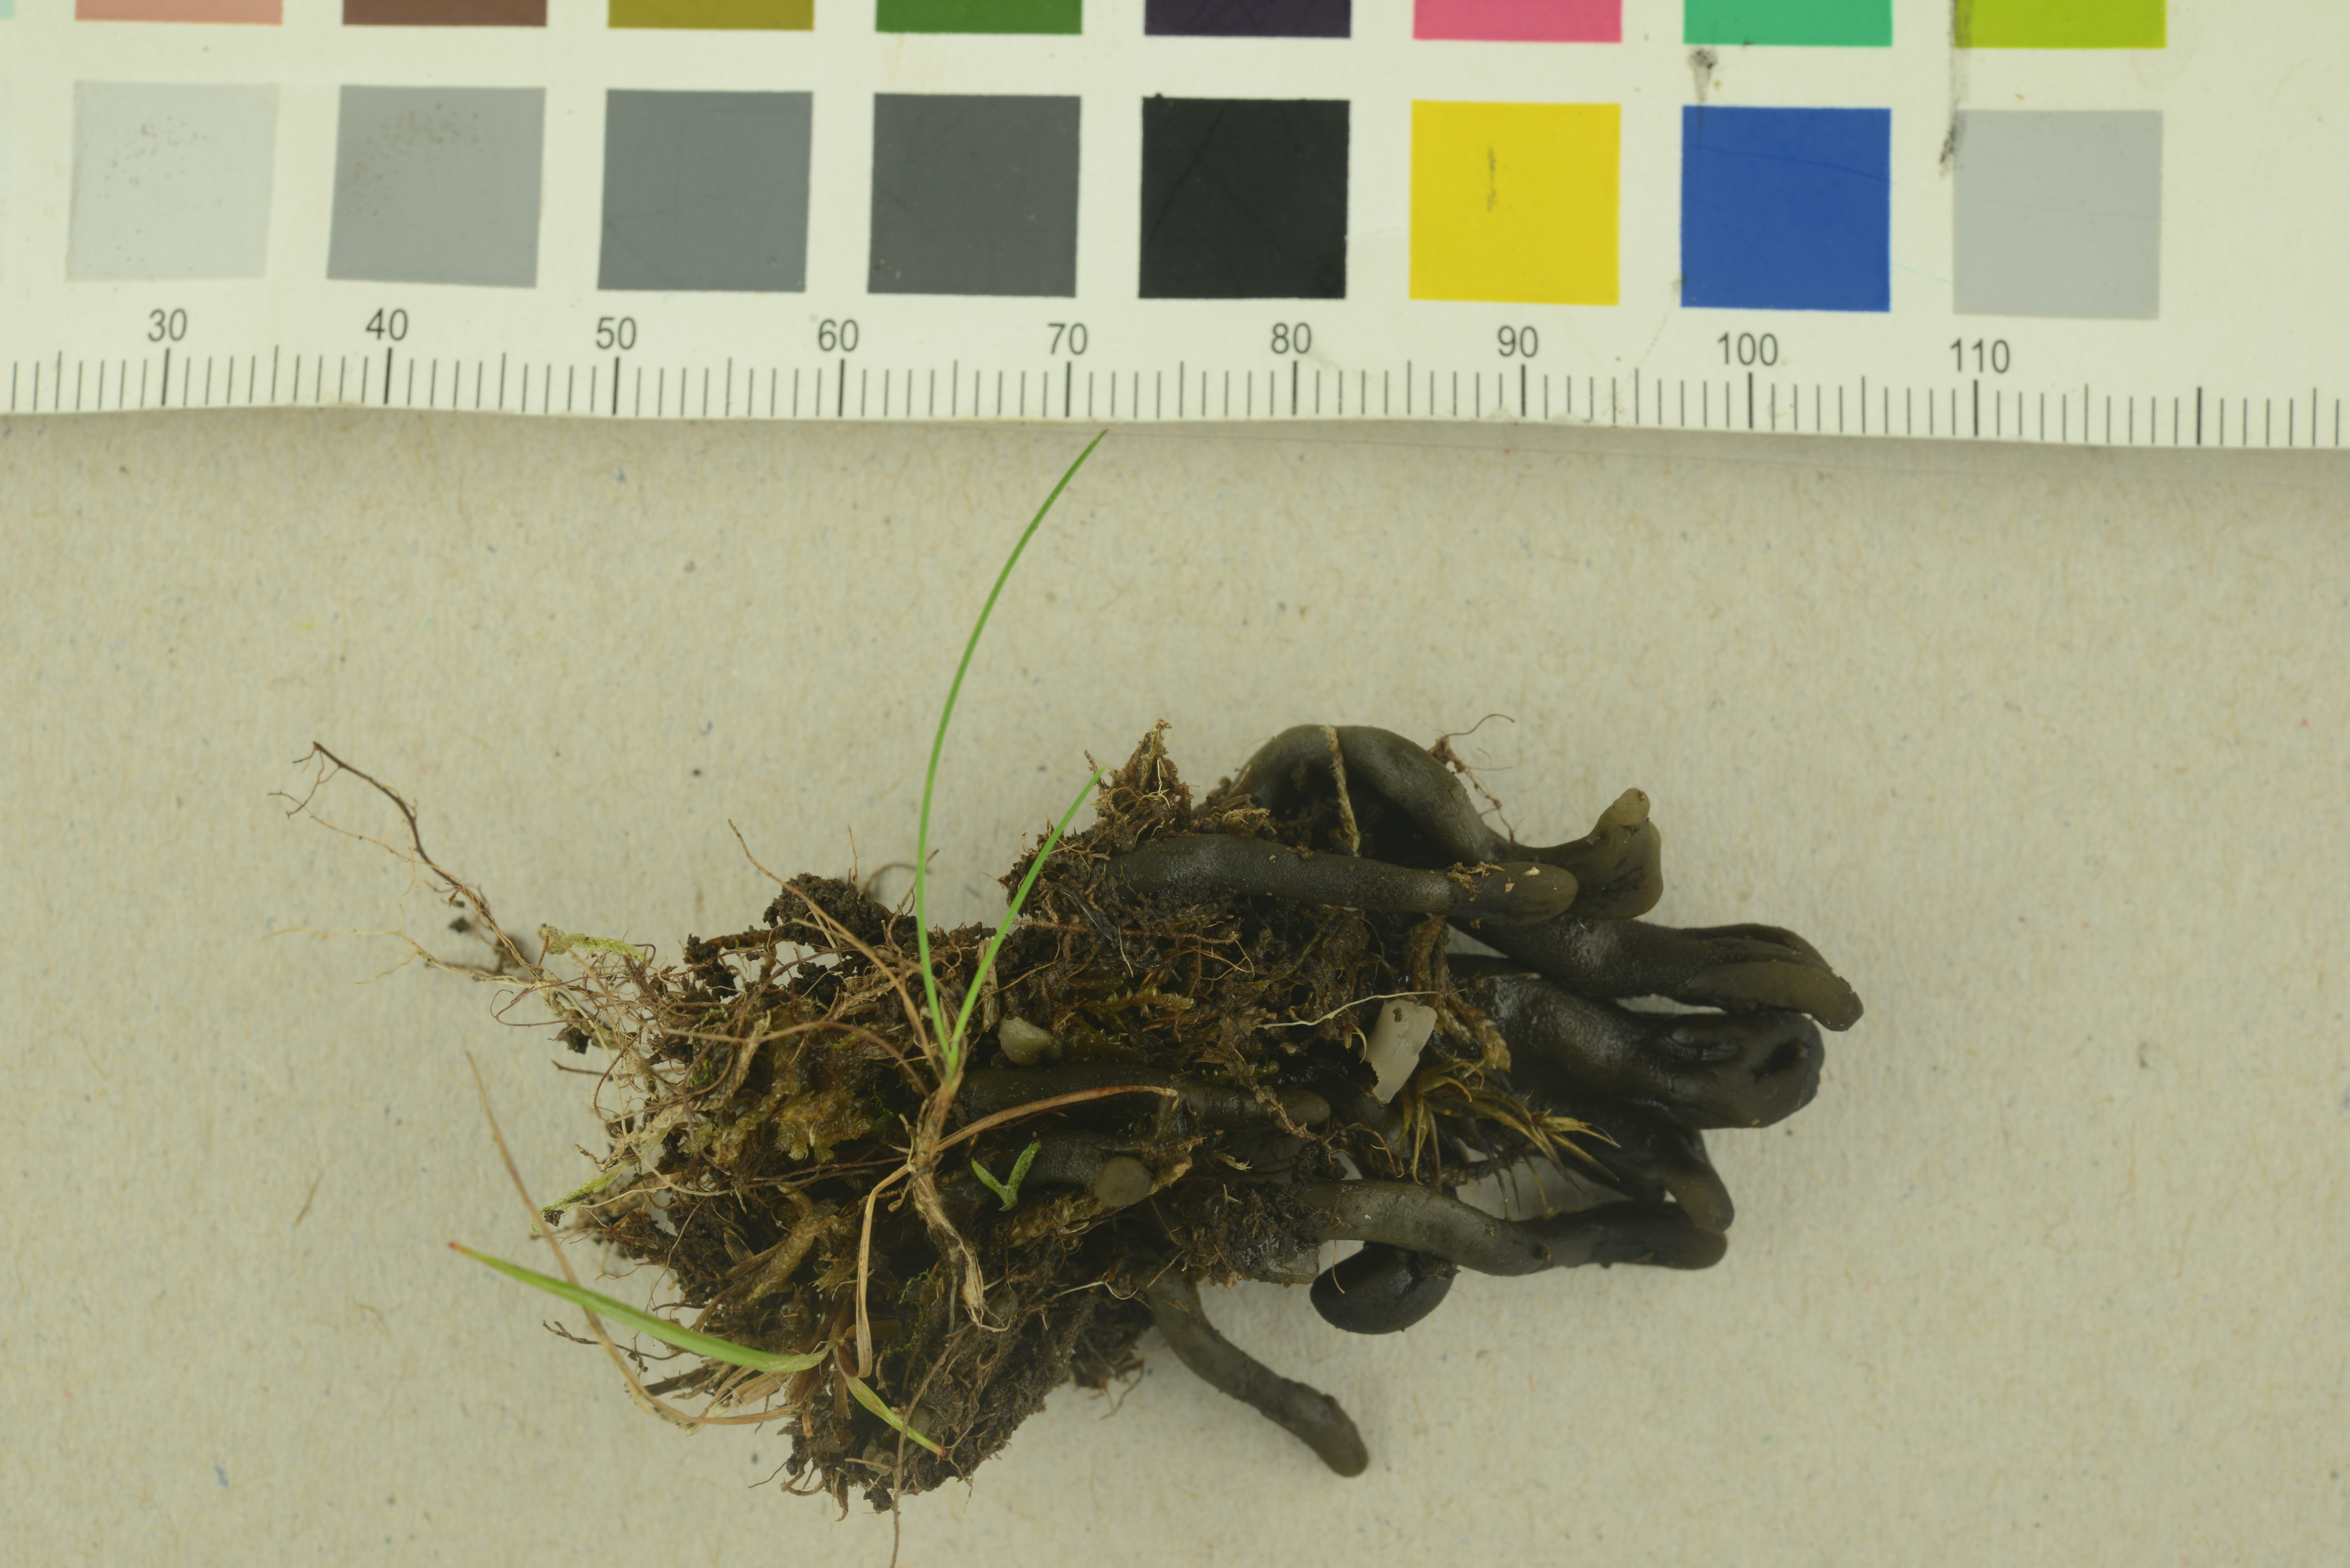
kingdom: Fungi
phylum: Ascomycota
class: Geoglossomycetes
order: Geoglossales
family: Geoglossaceae
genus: Geoglossum
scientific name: Geoglossum atropurpureum
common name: Dark-purple earthtongue
